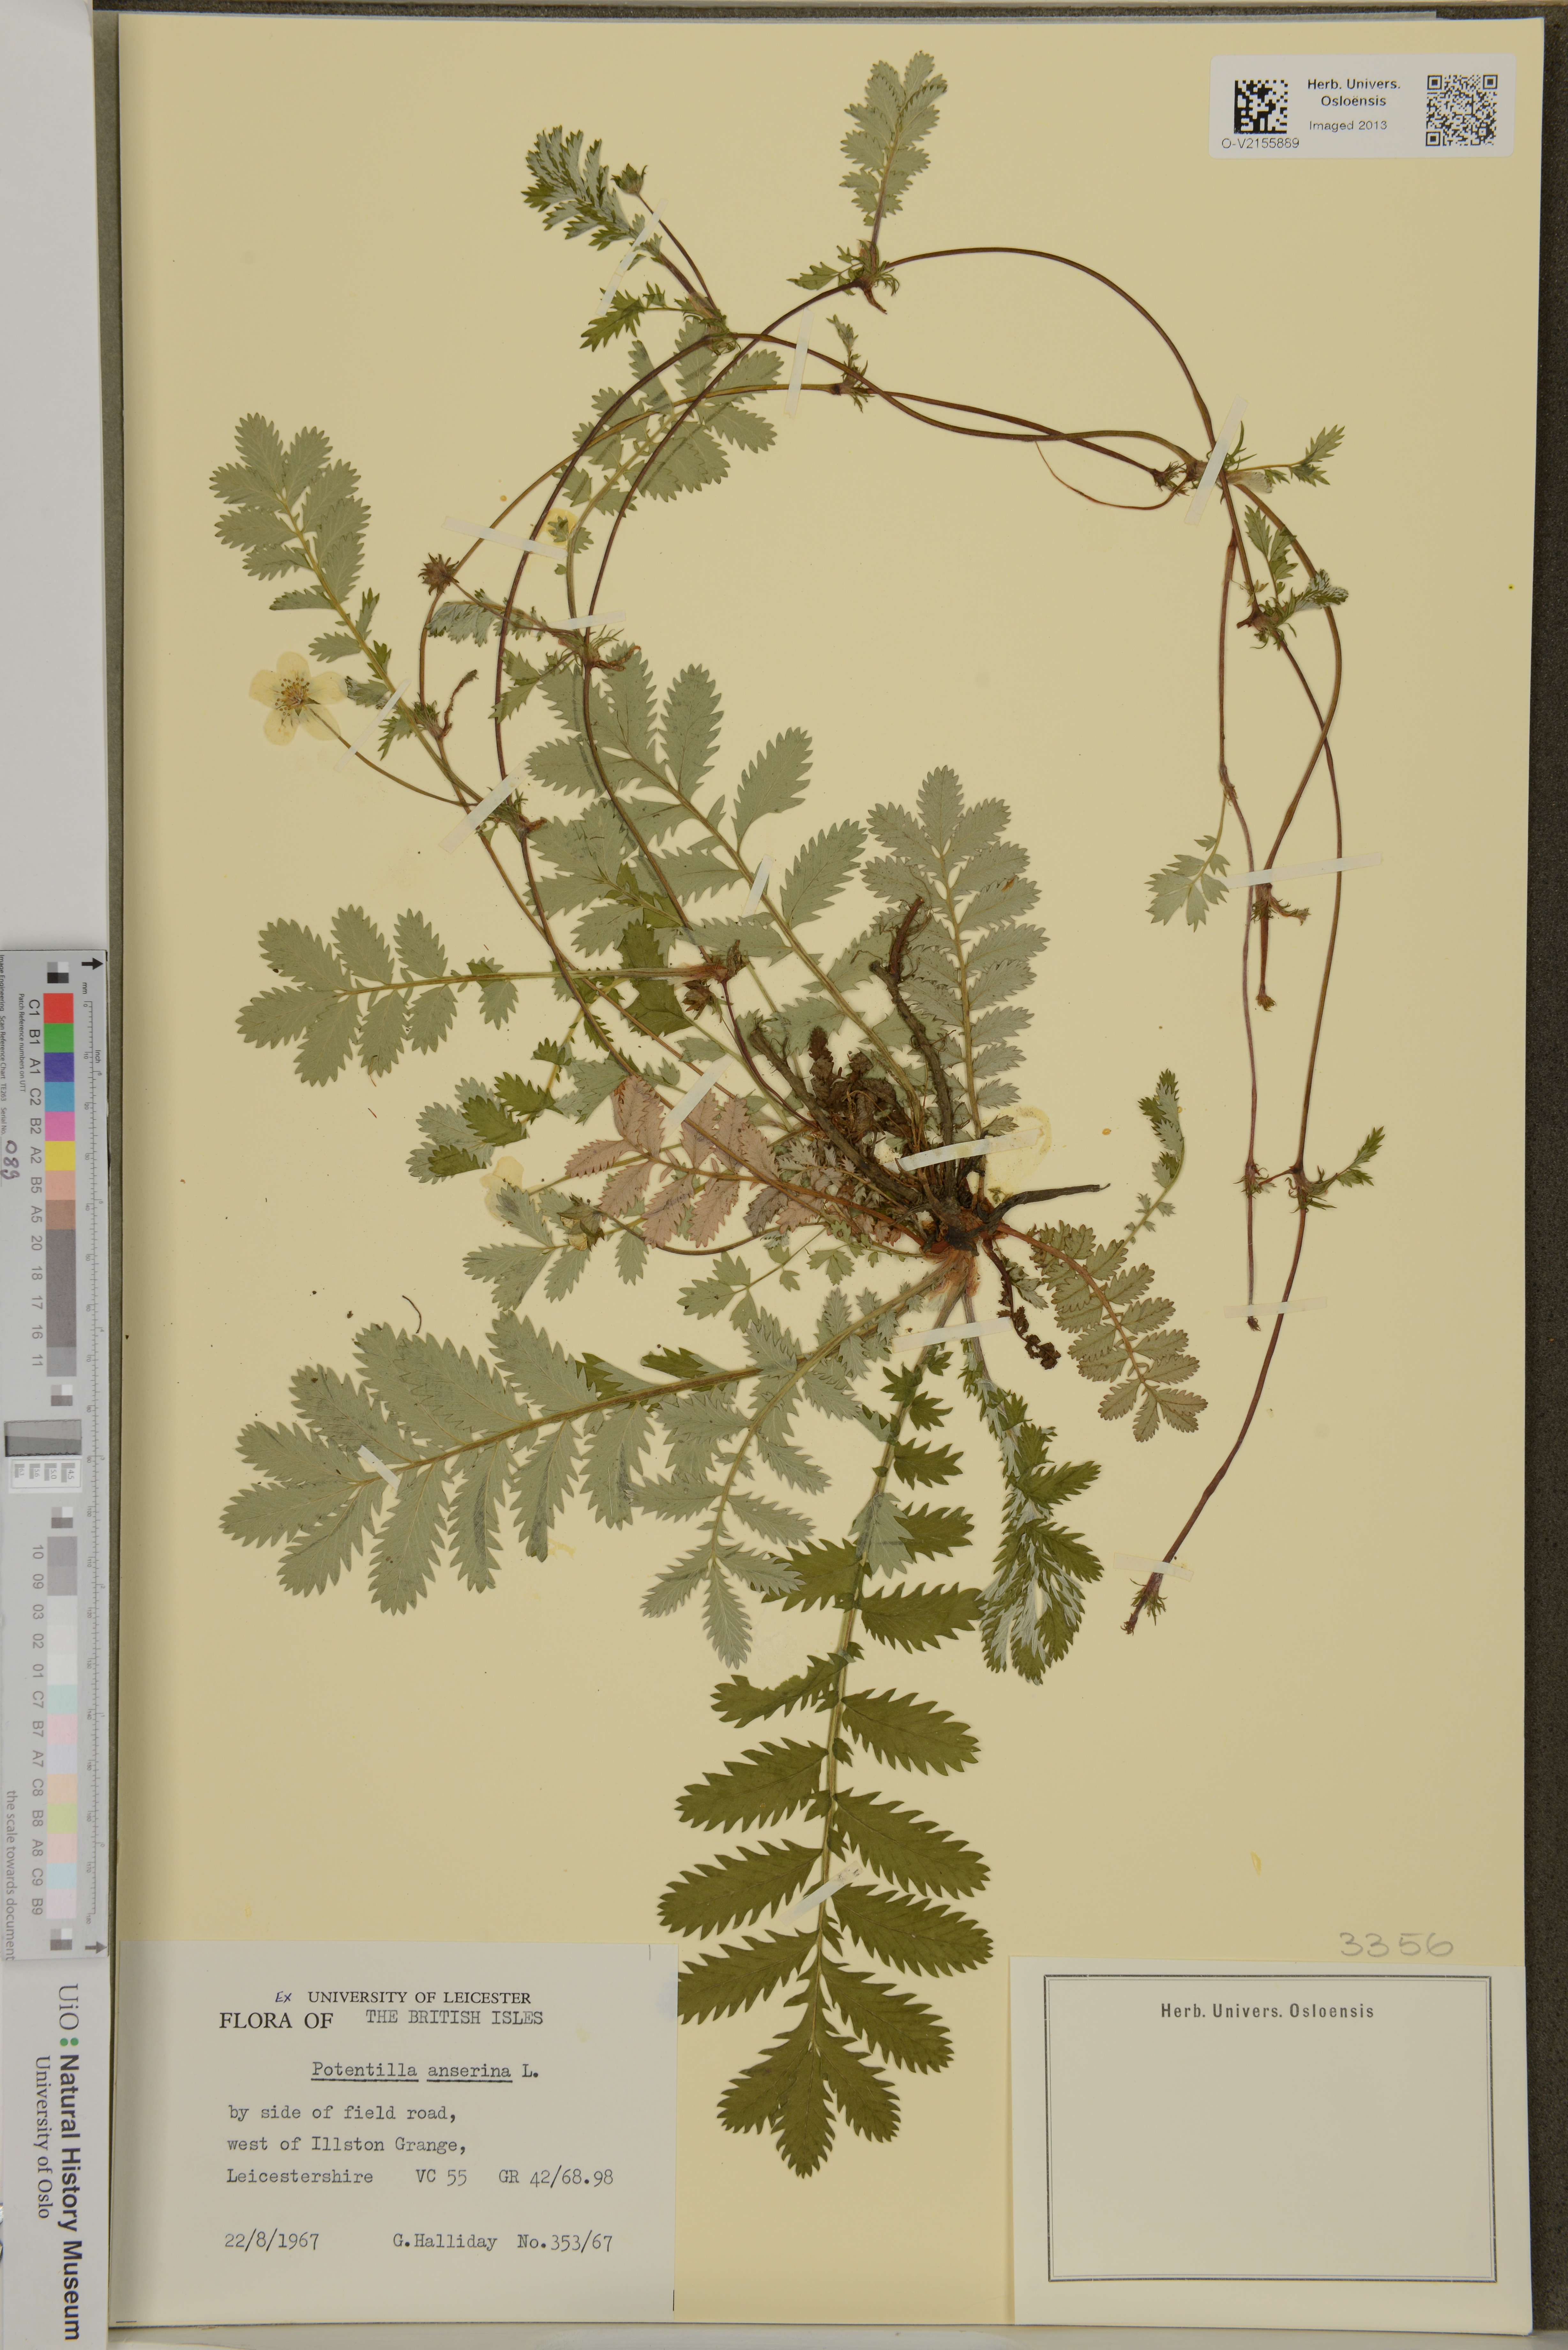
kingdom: Plantae
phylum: Tracheophyta
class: Magnoliopsida
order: Rosales
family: Rosaceae
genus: Argentina
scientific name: Argentina anserina
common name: Common silverweed
